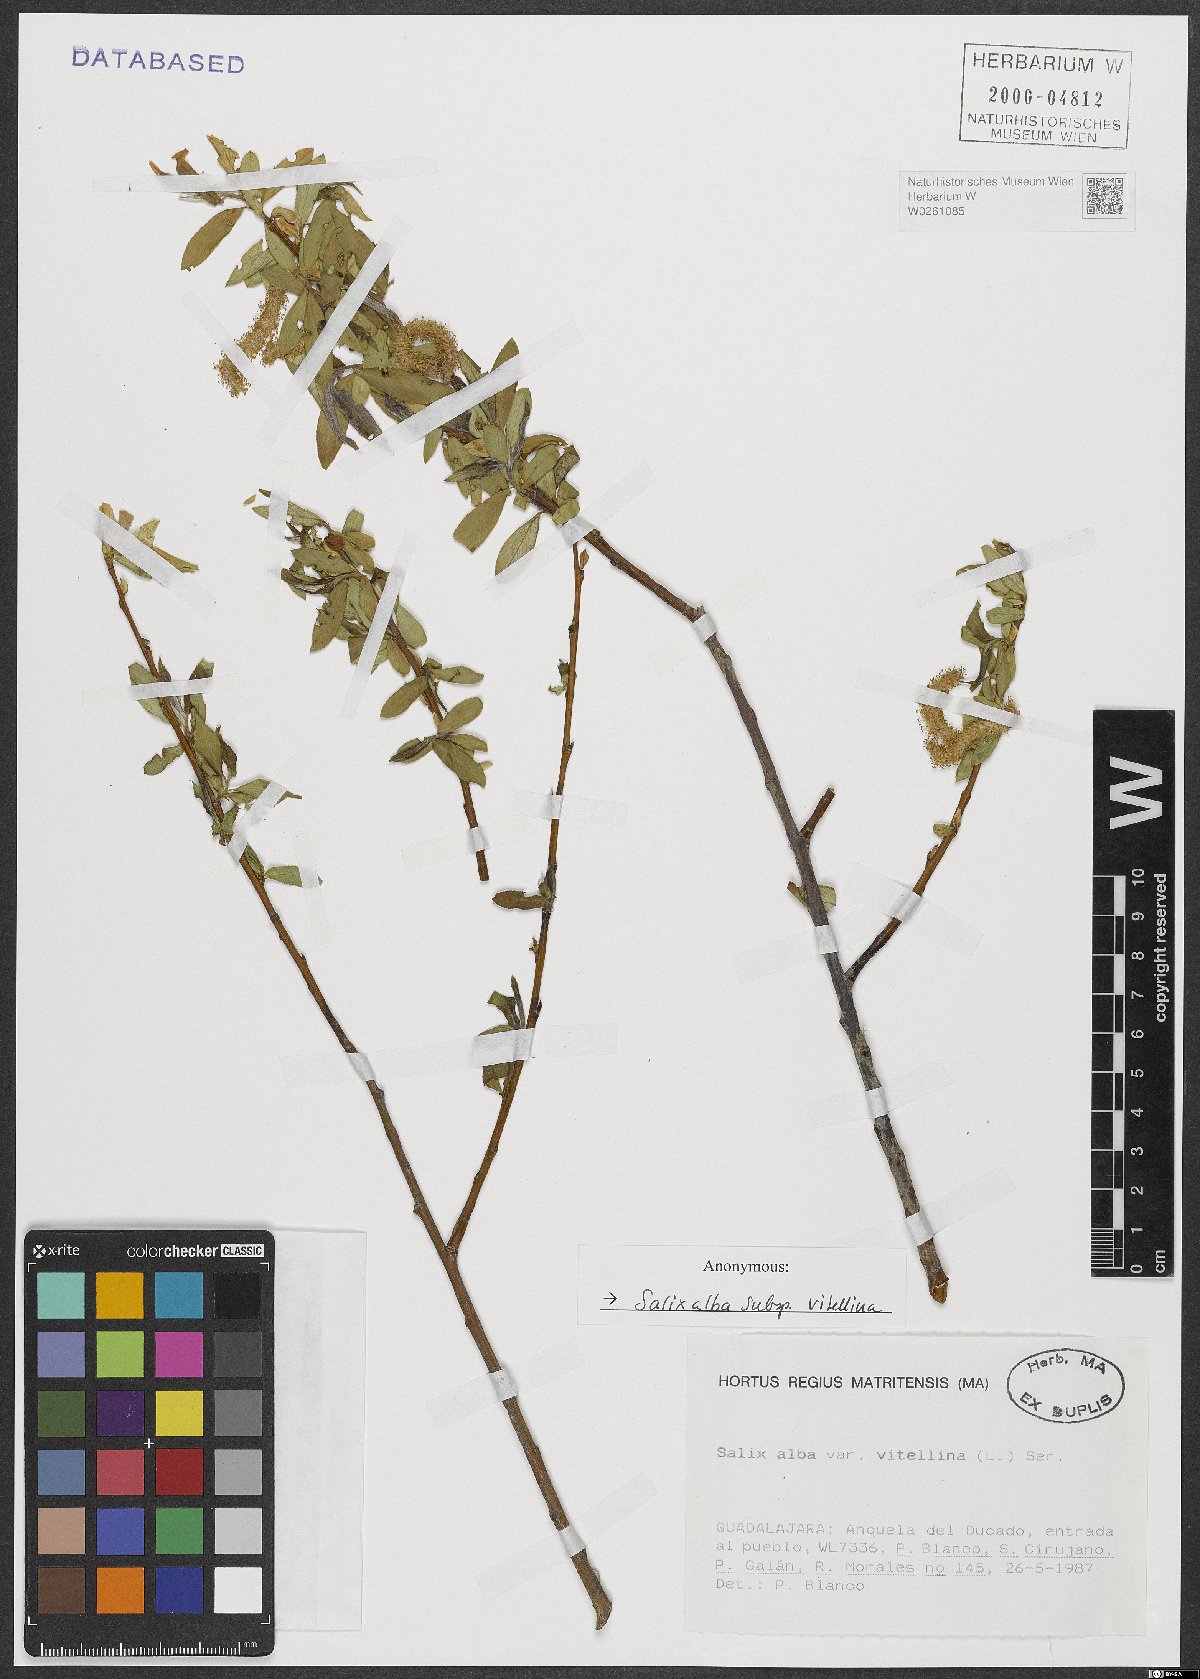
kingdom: Plantae
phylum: Tracheophyta
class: Magnoliopsida
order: Malpighiales
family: Salicaceae
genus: Salix
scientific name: Salix alba
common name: White willow
